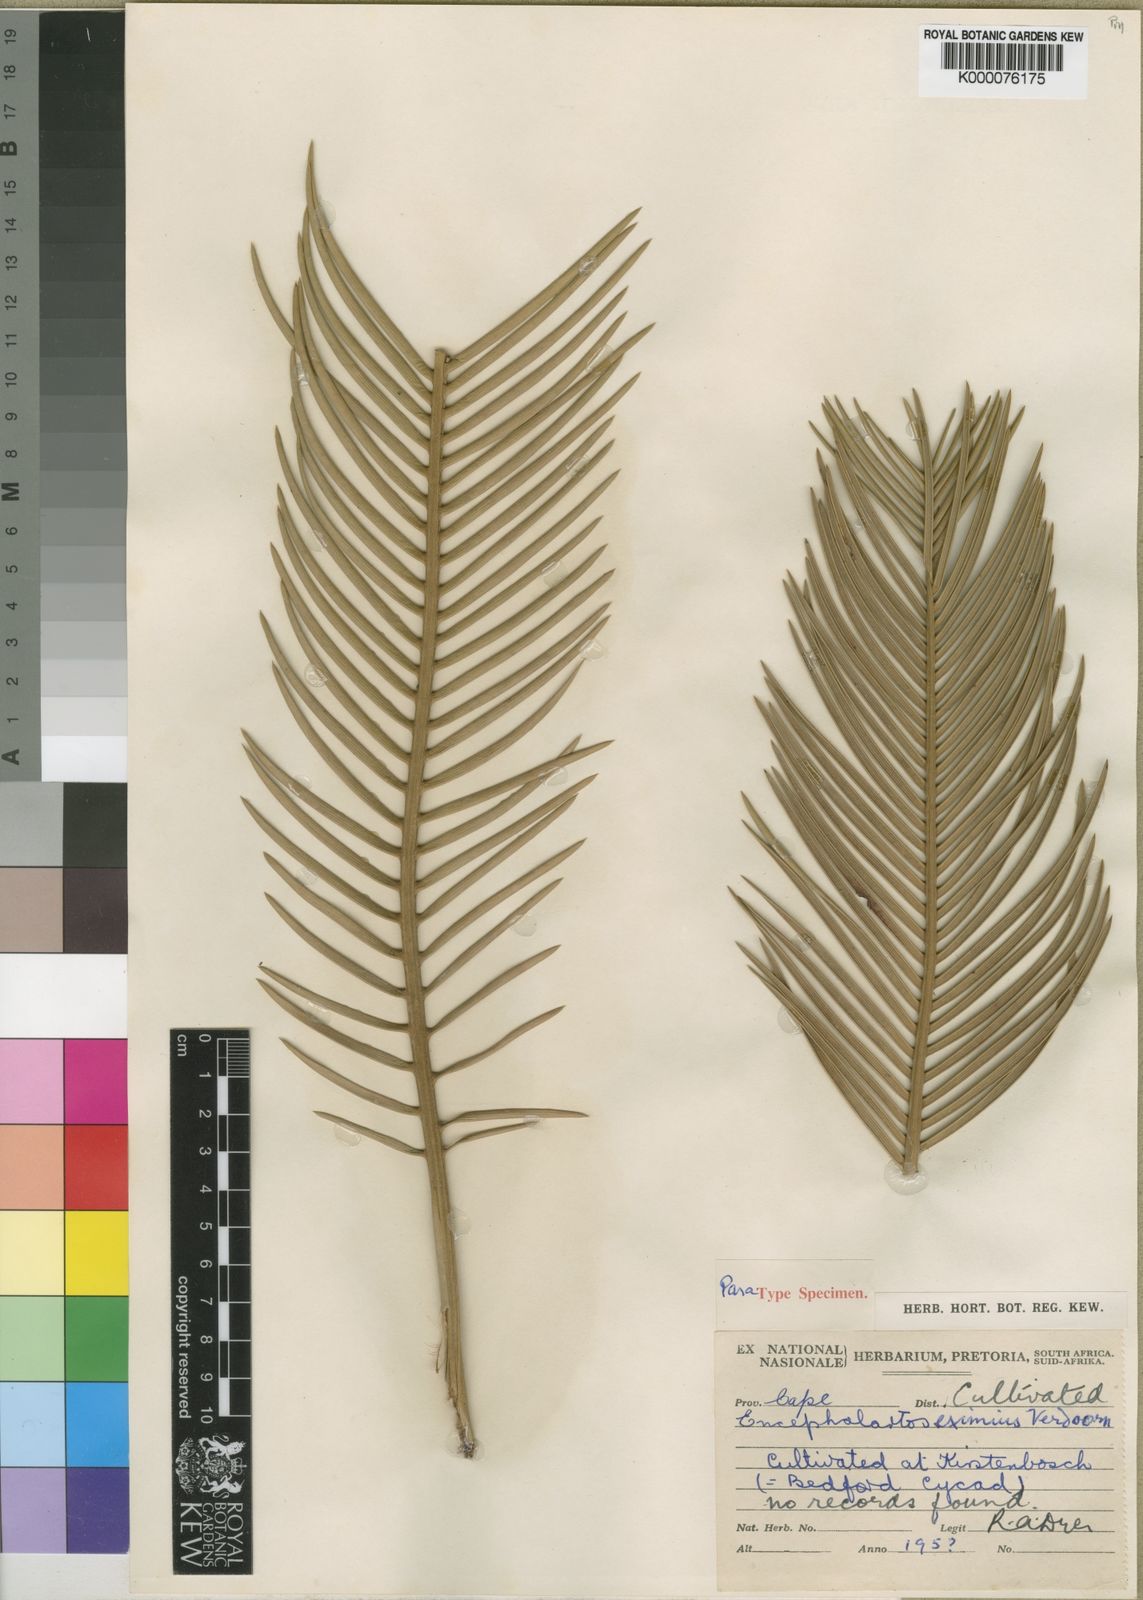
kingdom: Plantae
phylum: Tracheophyta
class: Cycadopsida
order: Cycadales
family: Zamiaceae
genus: Encephalartos
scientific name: Encephalartos cycadifolius
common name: Winterberg cycad
